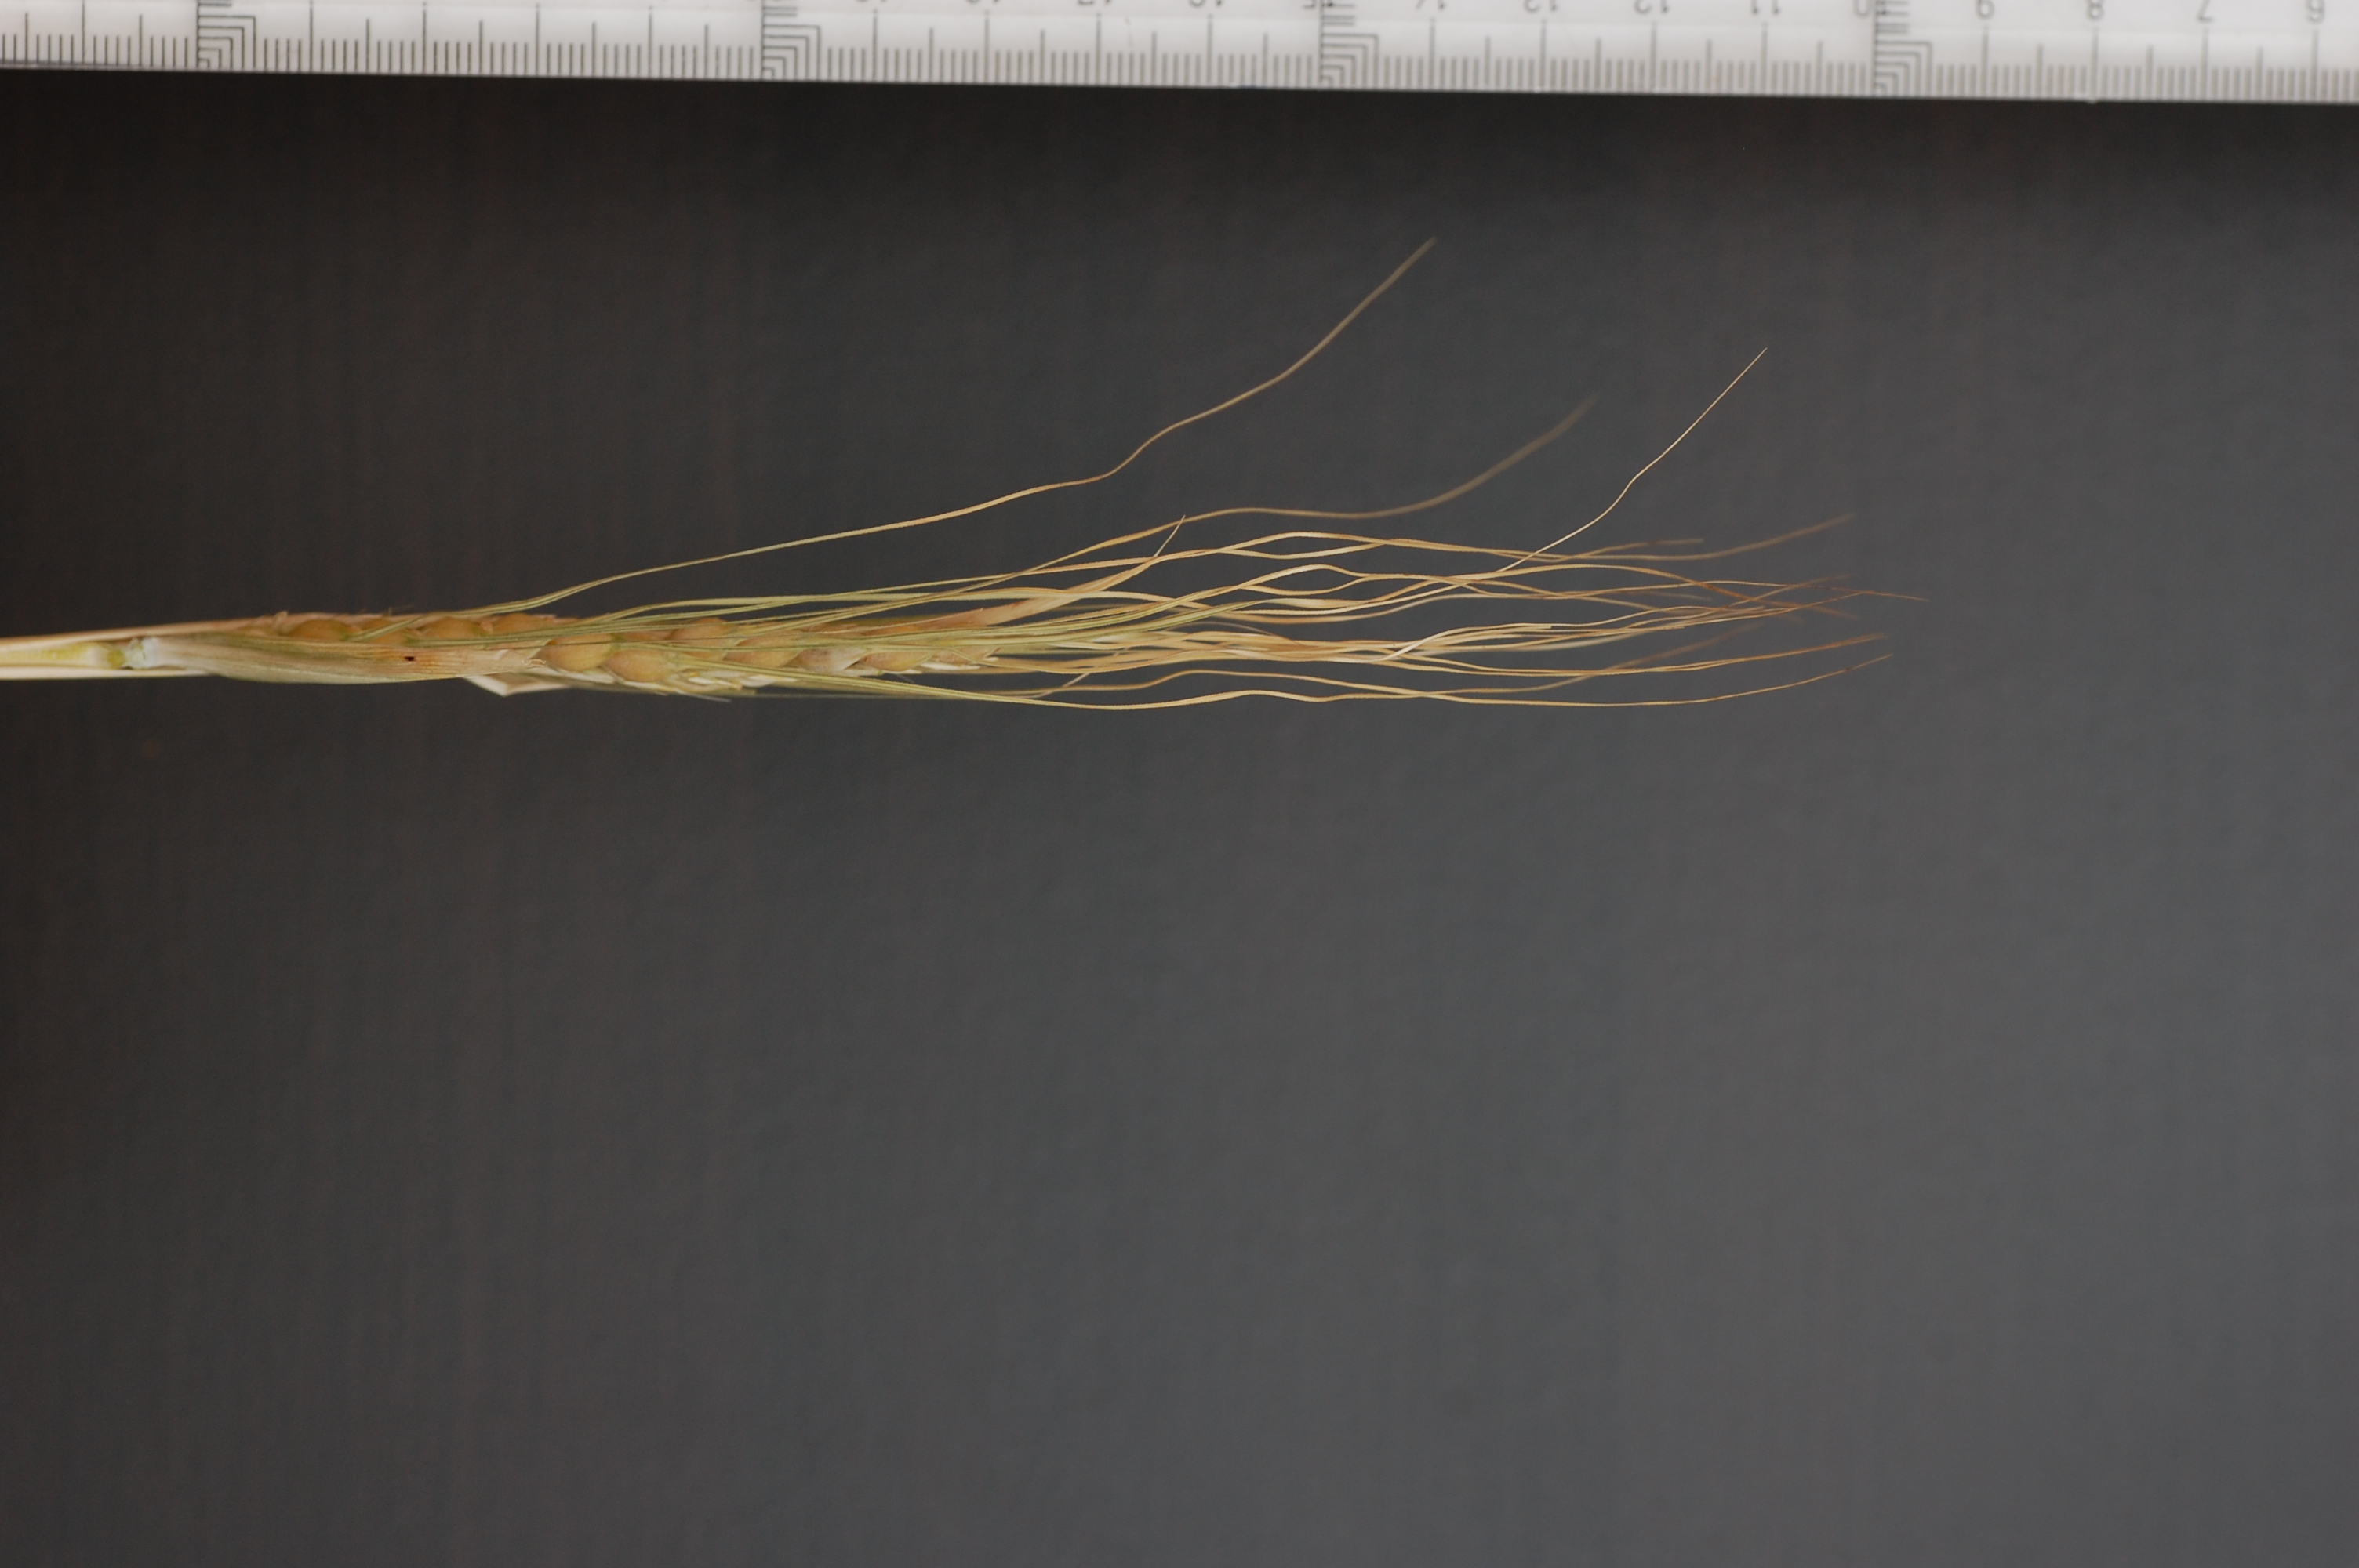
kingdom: Plantae
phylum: Tracheophyta
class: Liliopsida
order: Poales
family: Poaceae
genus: Hordeum
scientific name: Hordeum vulgare
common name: Common barley
